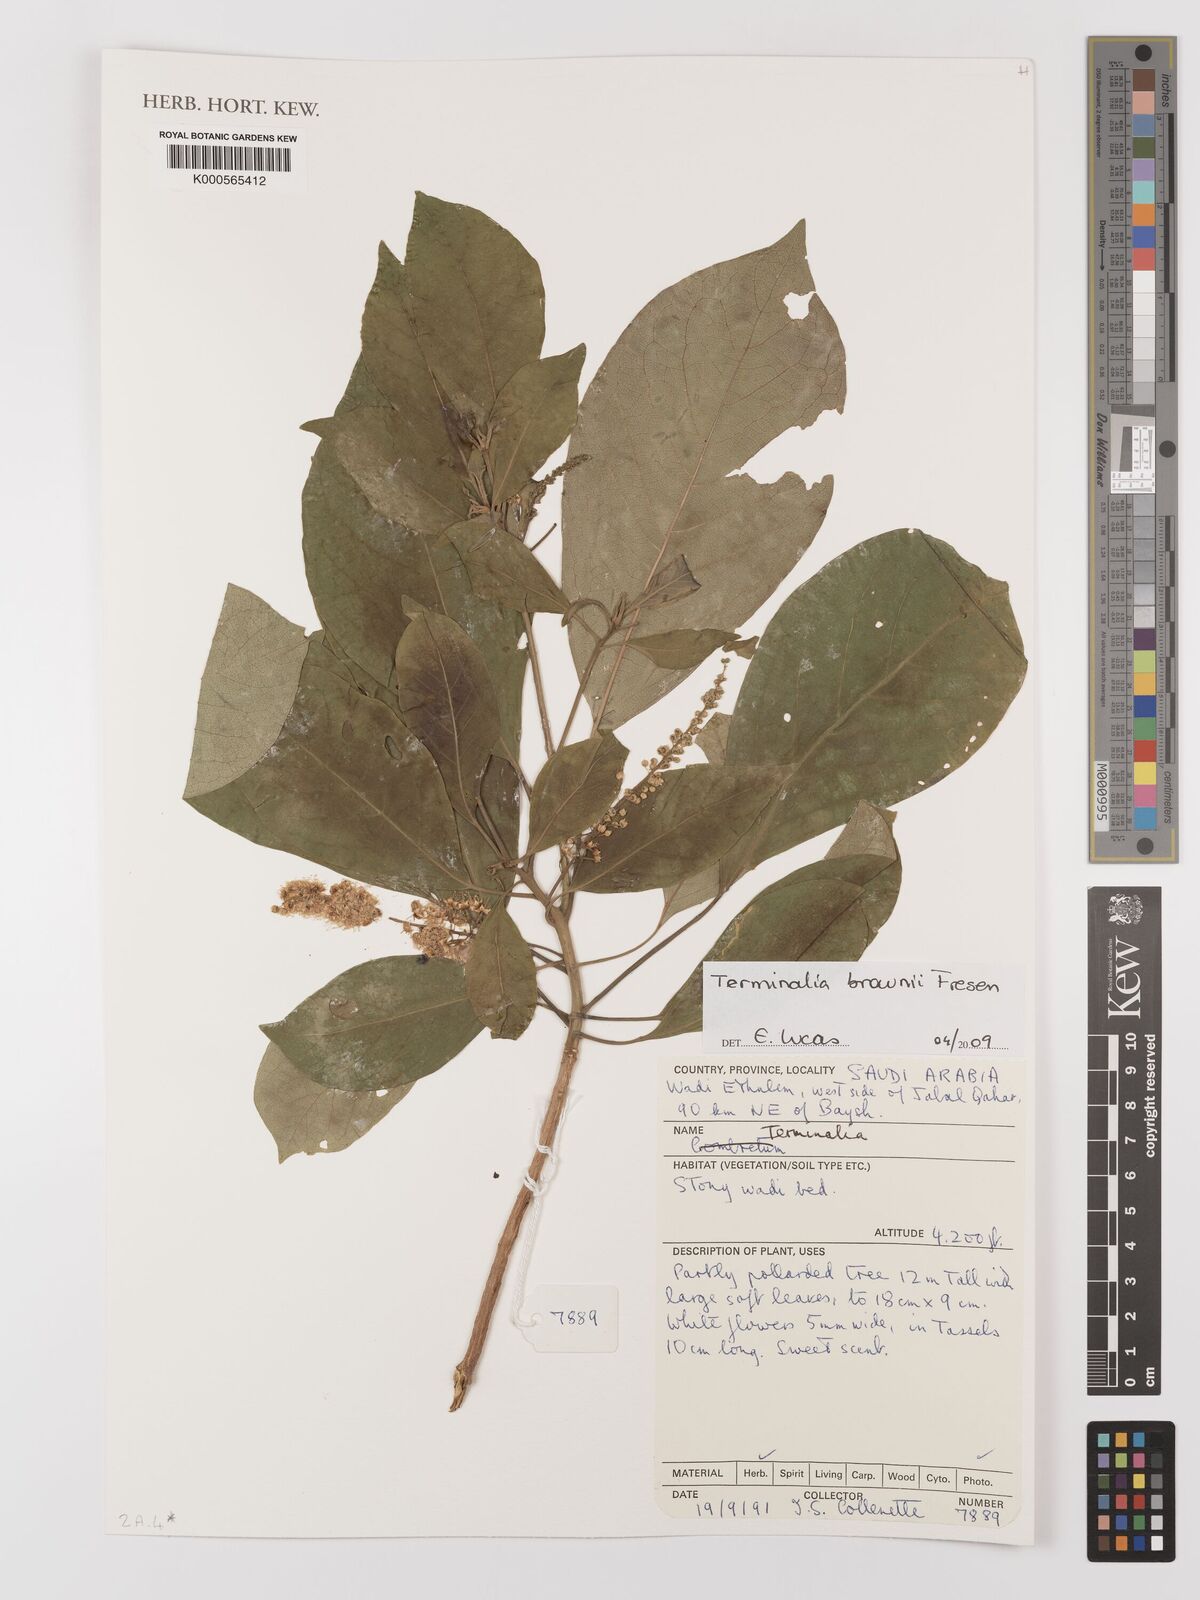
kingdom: Plantae
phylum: Tracheophyta
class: Magnoliopsida
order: Myrtales
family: Combretaceae
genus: Terminalia
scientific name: Terminalia brownii
